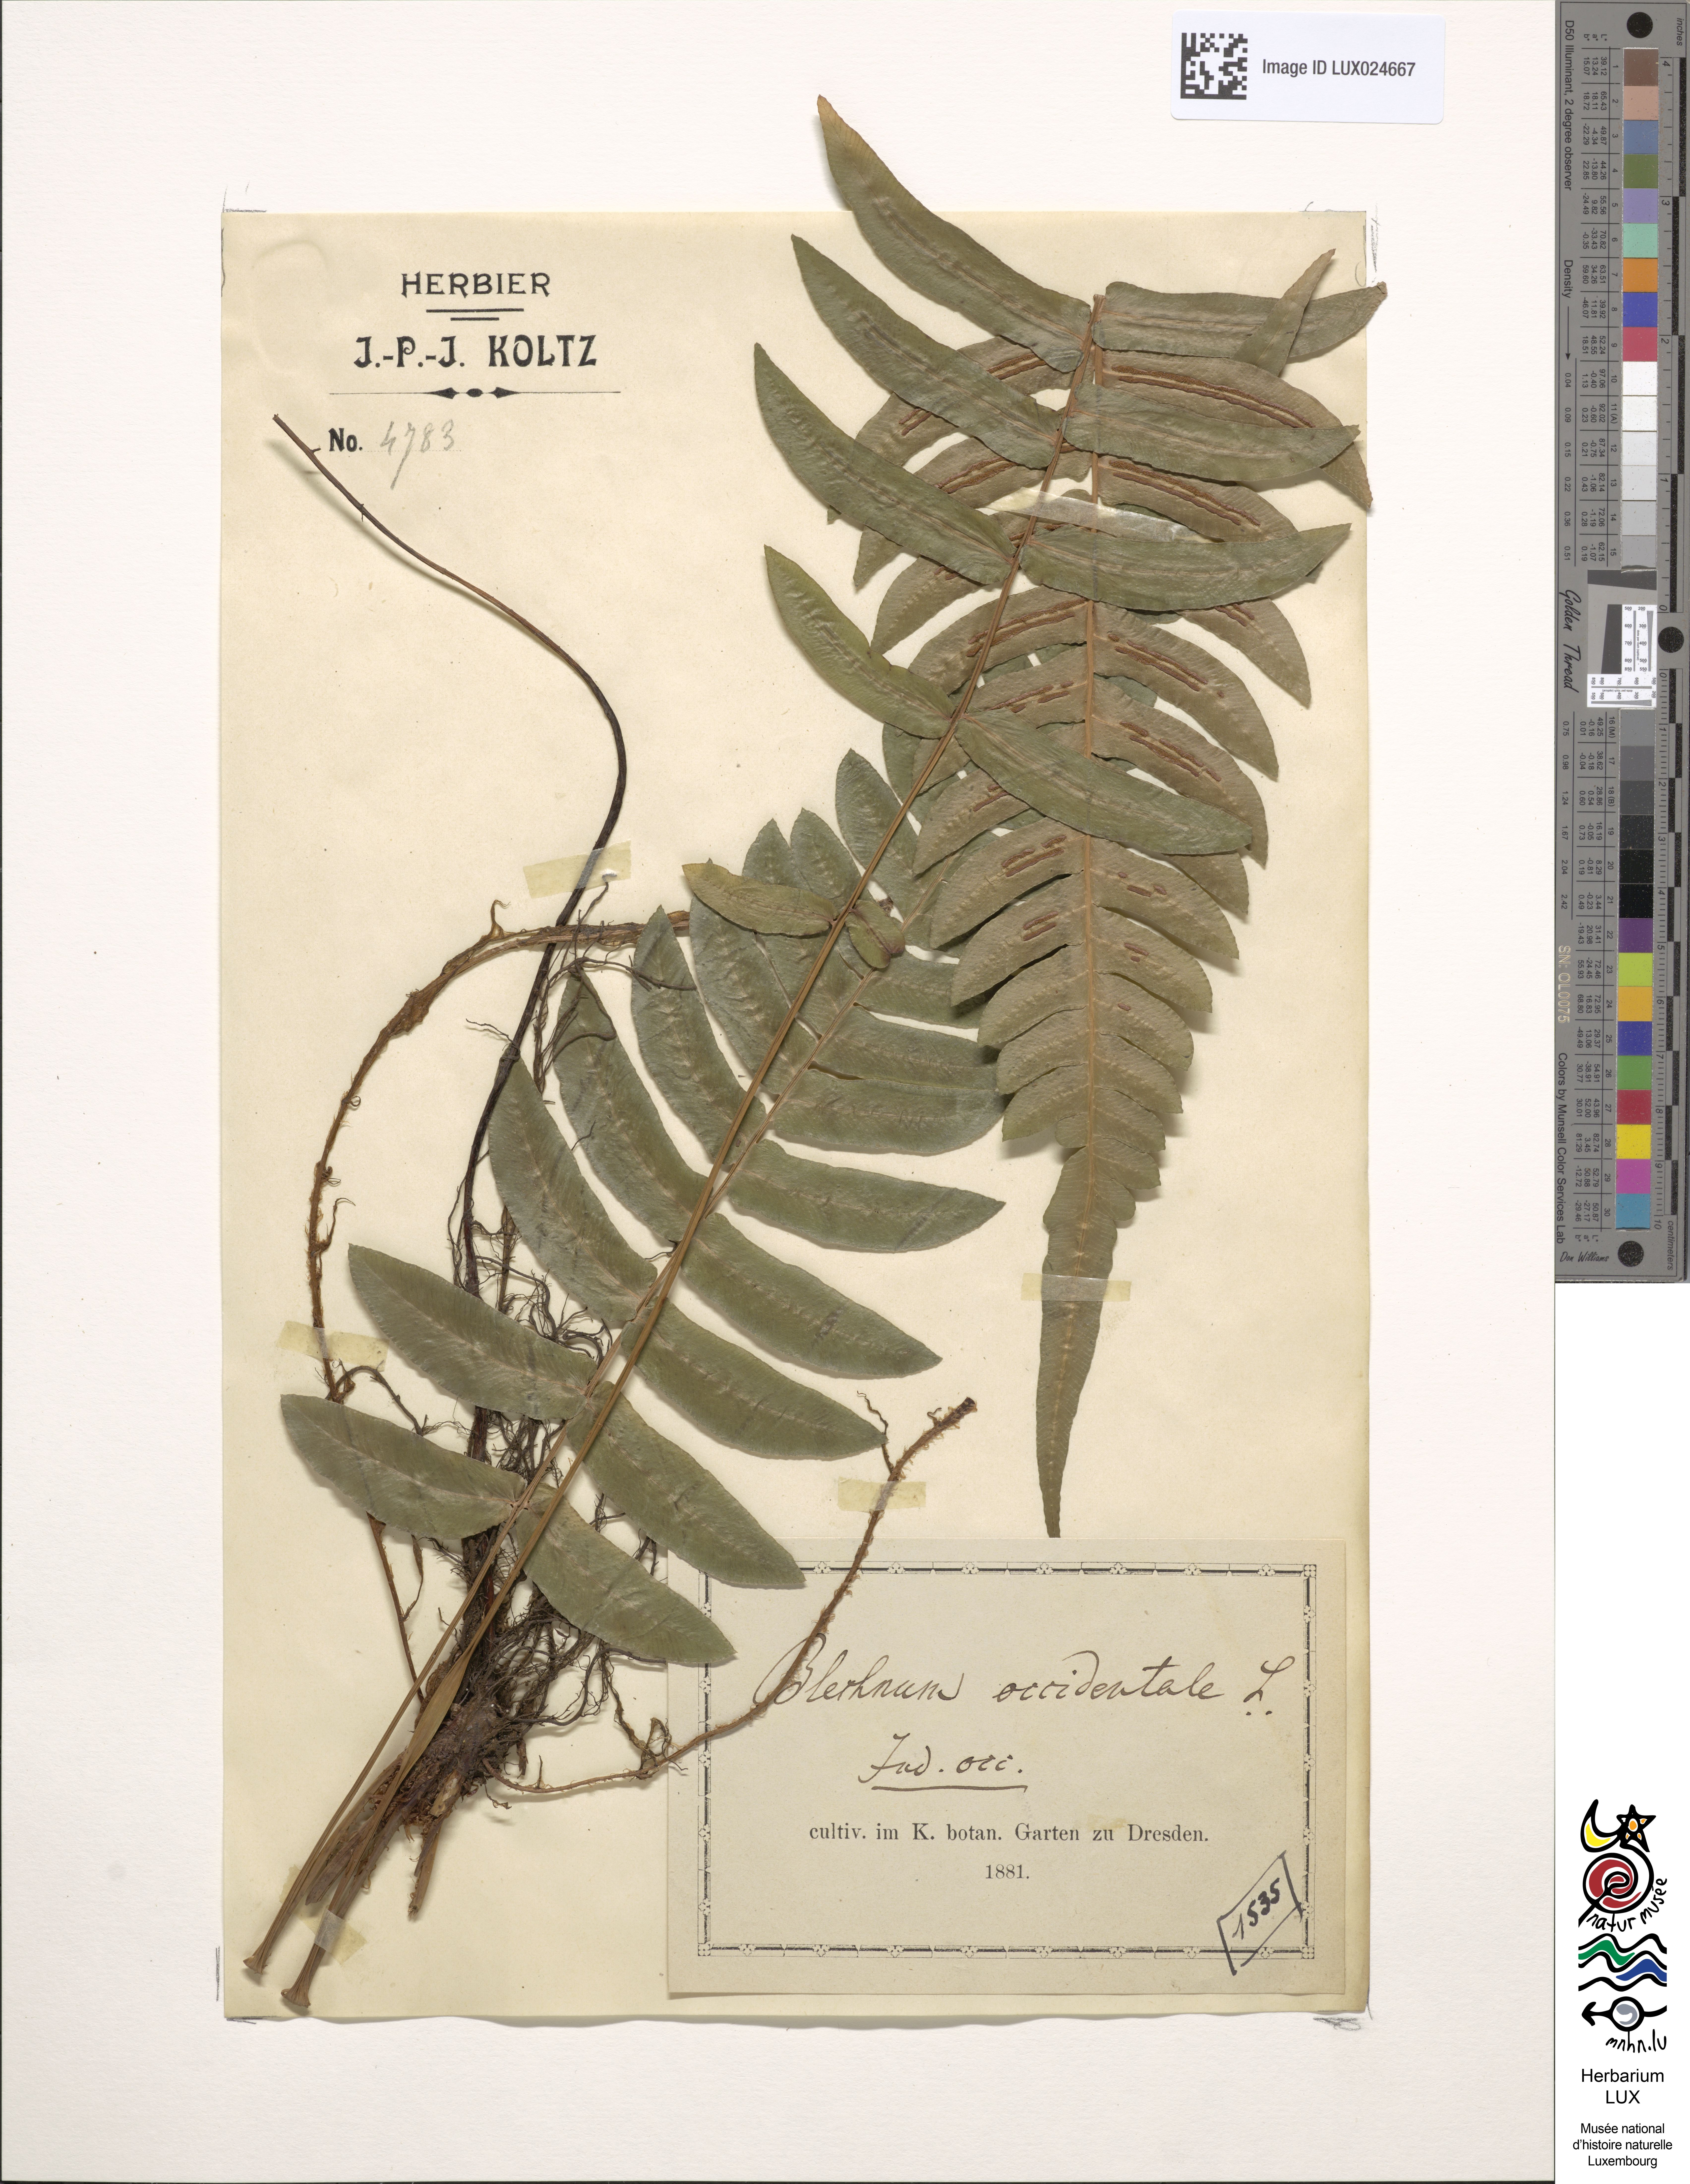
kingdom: Plantae
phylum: Tracheophyta
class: Polypodiopsida
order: Polypodiales
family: Blechnaceae
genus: Blechnum
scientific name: Blechnum occidentale
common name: Hammock fern
